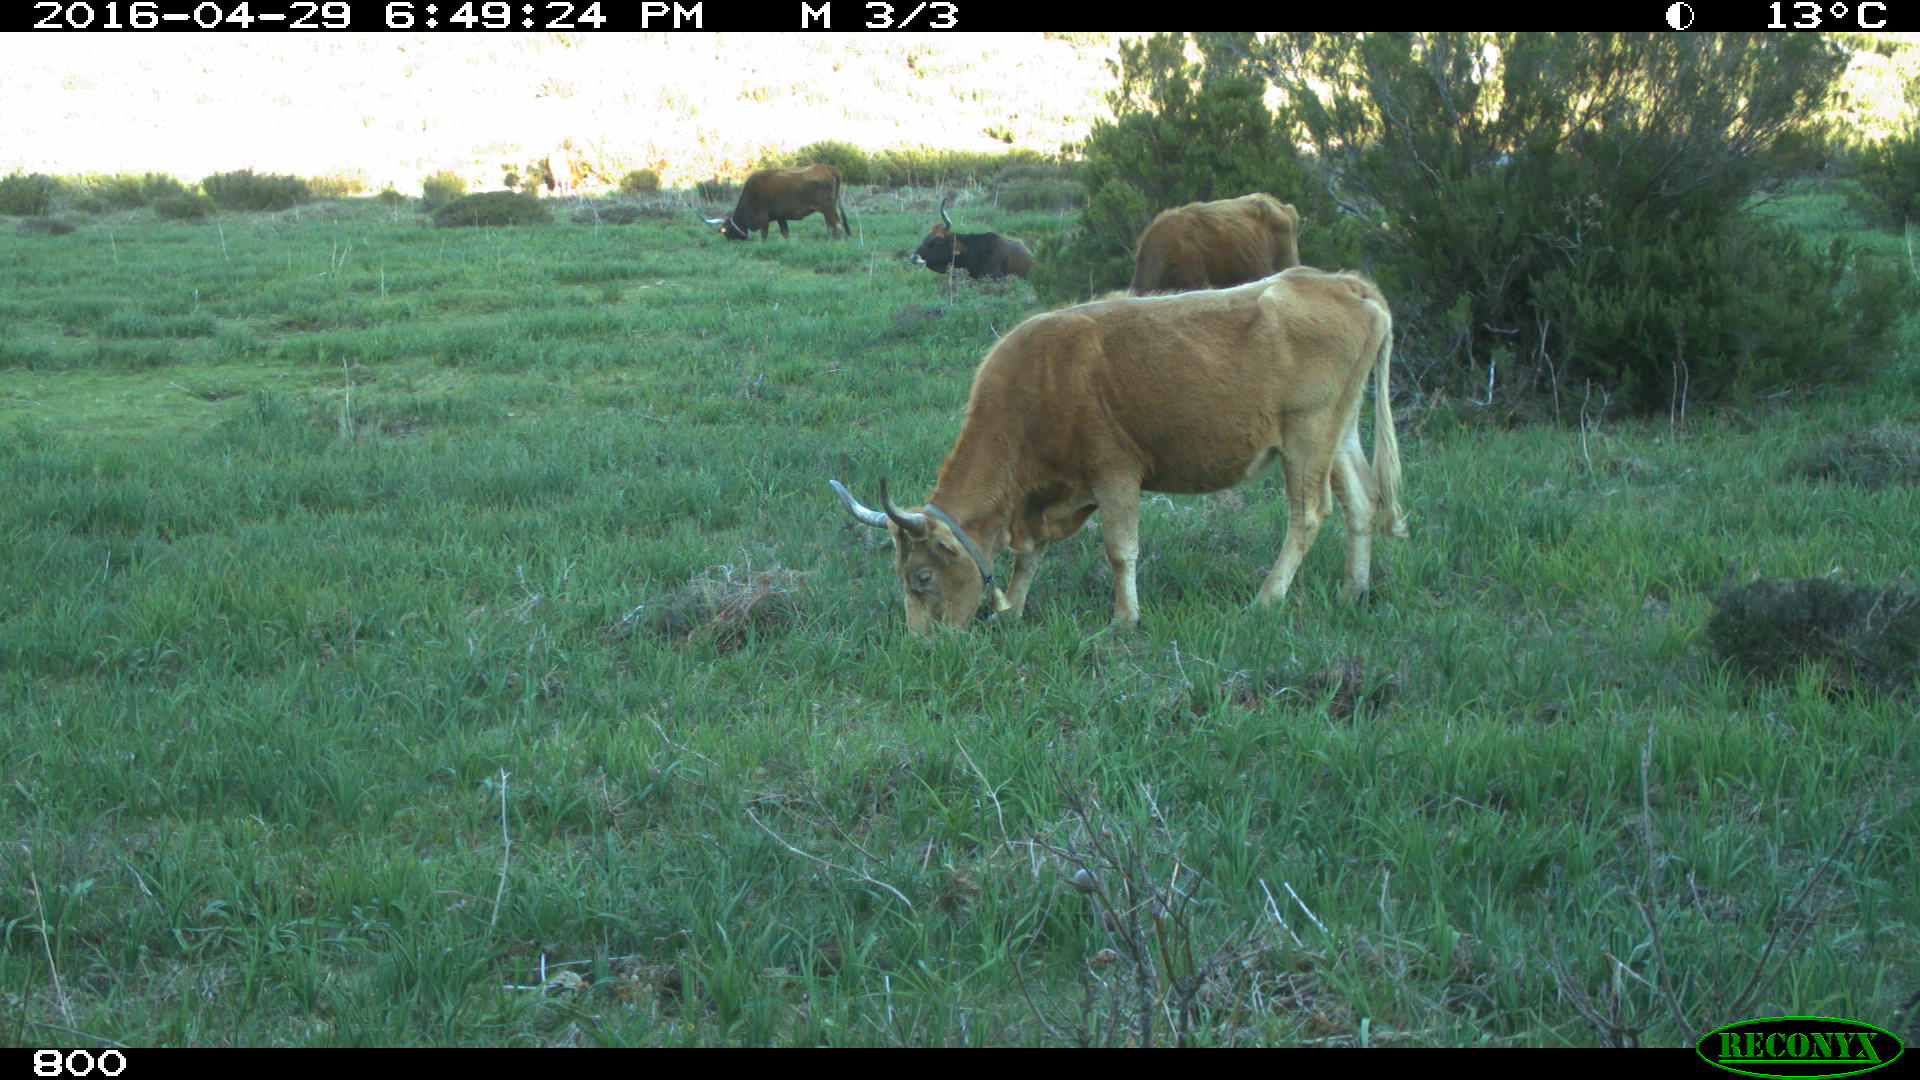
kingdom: Animalia
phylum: Chordata
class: Mammalia
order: Artiodactyla
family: Bovidae
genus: Bos
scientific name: Bos taurus
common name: Domesticated cattle
